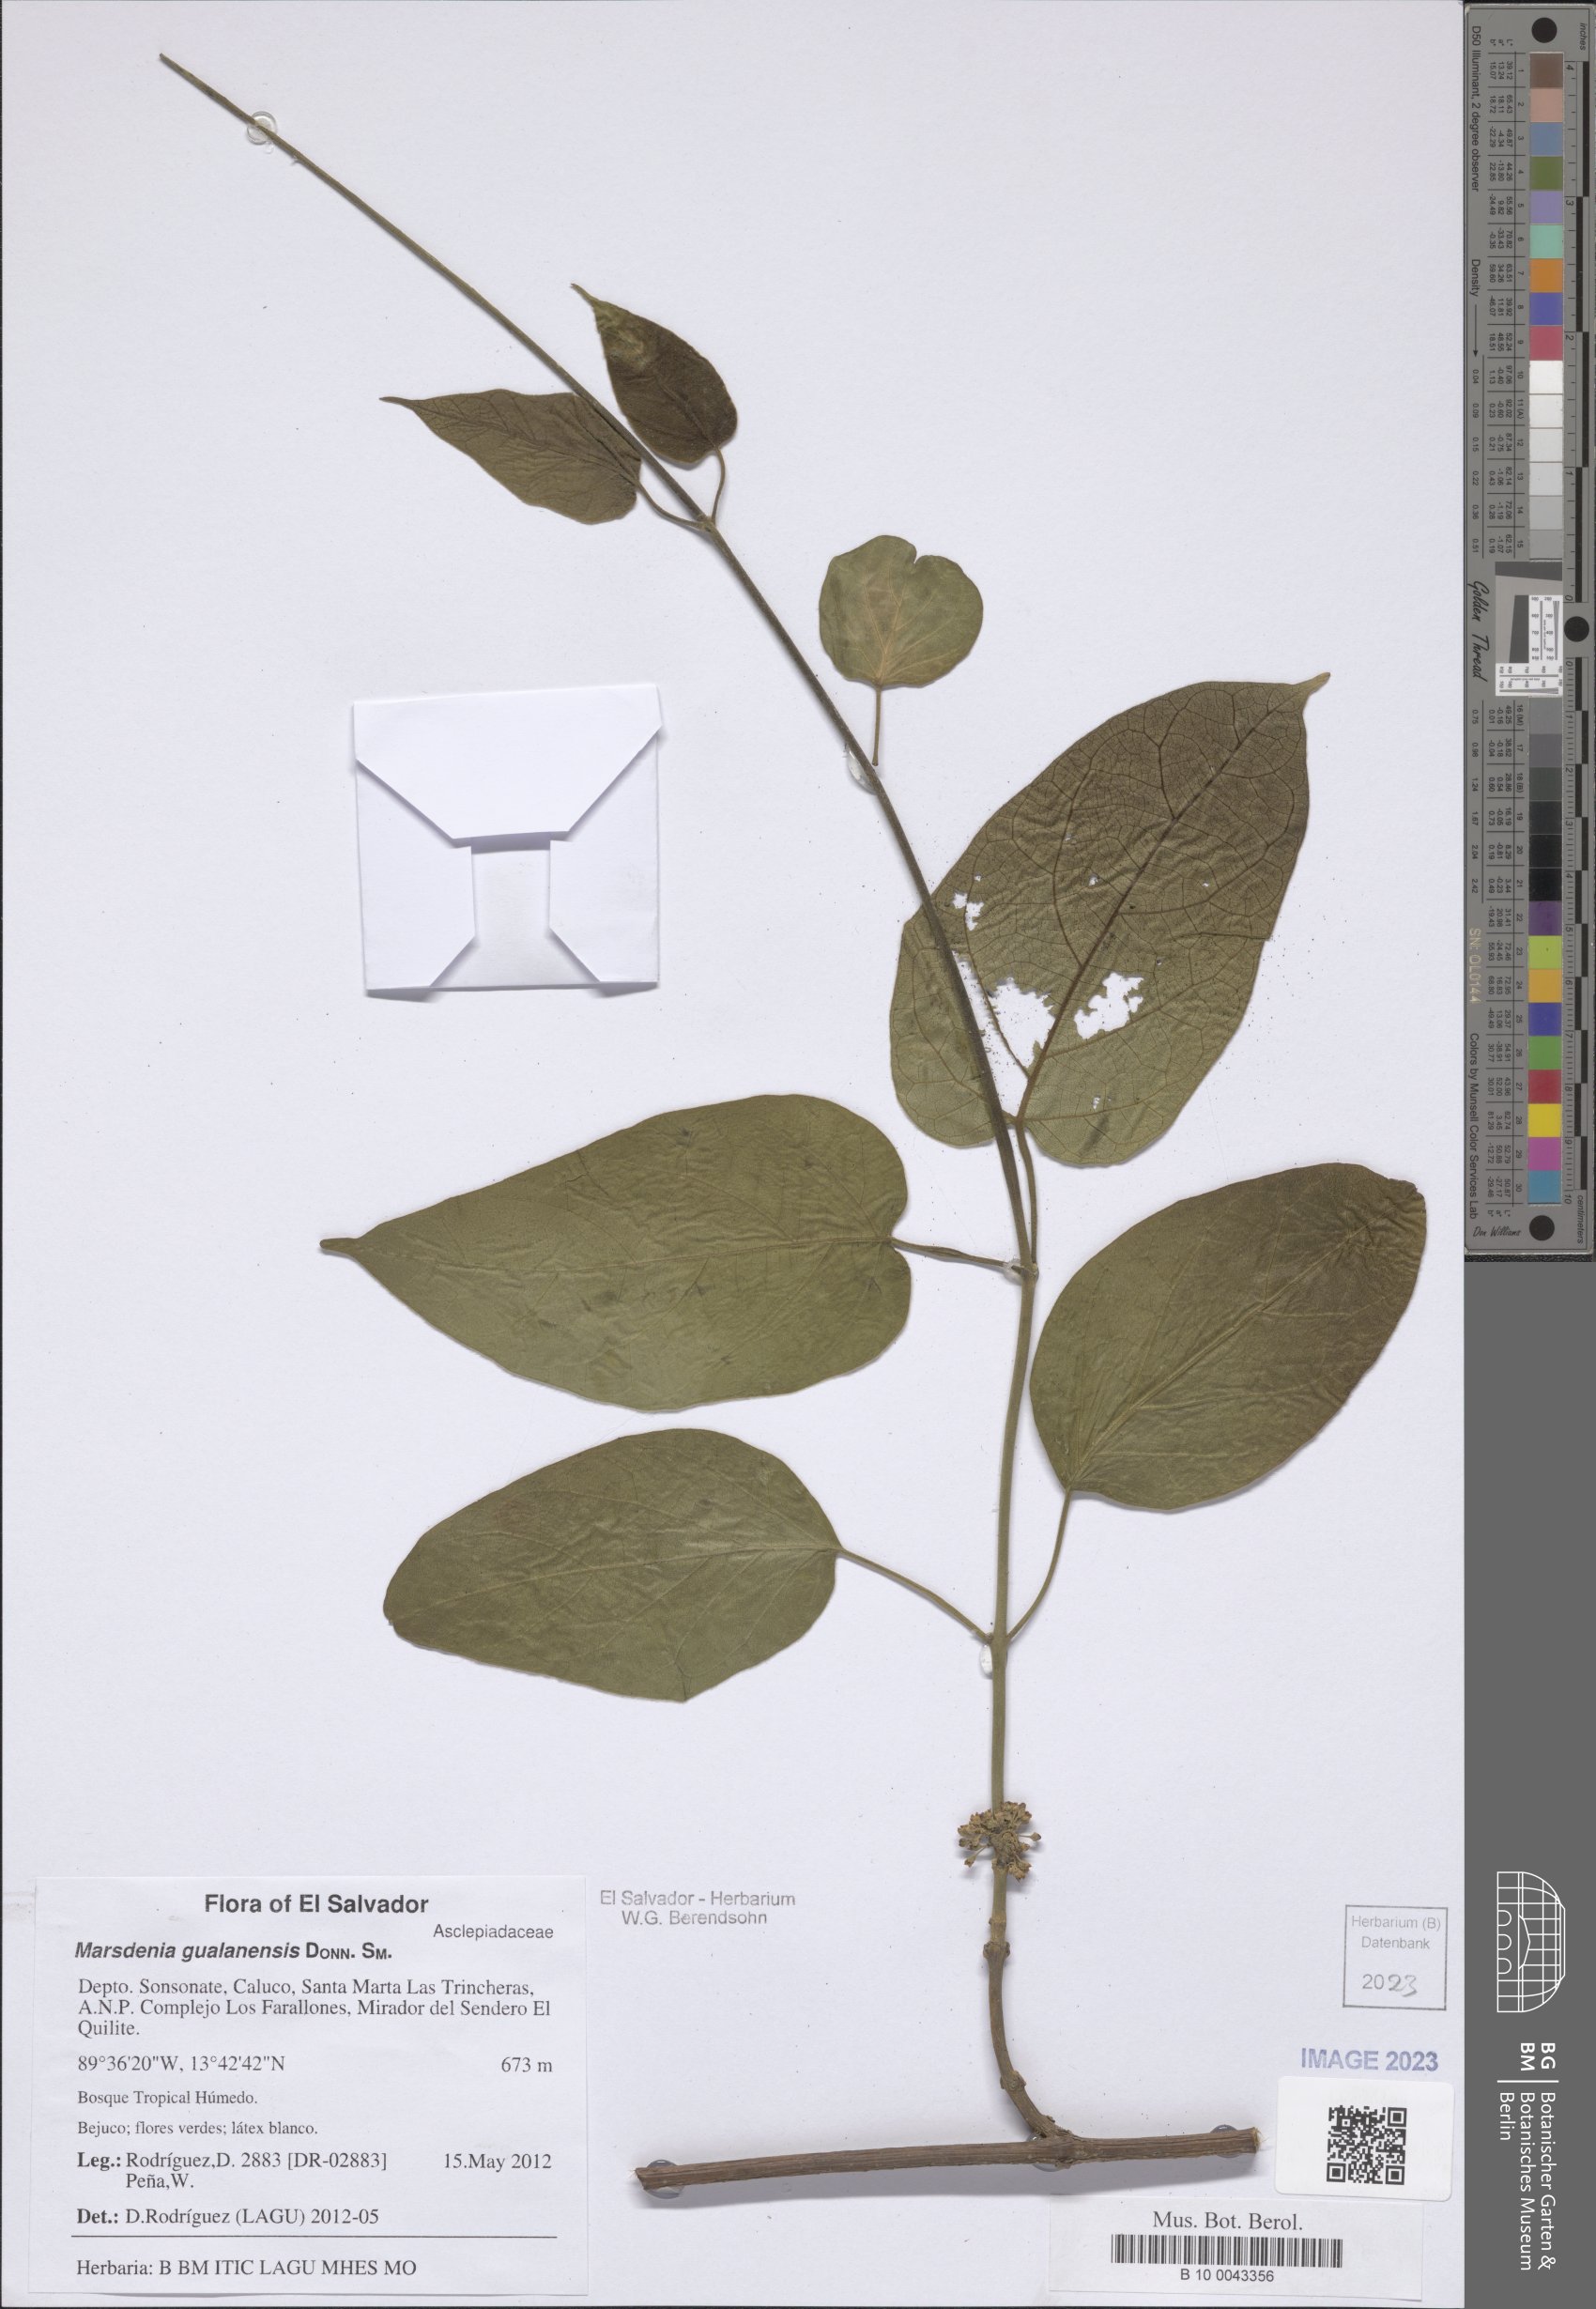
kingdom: Plantae
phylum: Tracheophyta
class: Magnoliopsida
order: Gentianales
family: Apocynaceae
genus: Ruehssia
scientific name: Ruehssia gualanensis
